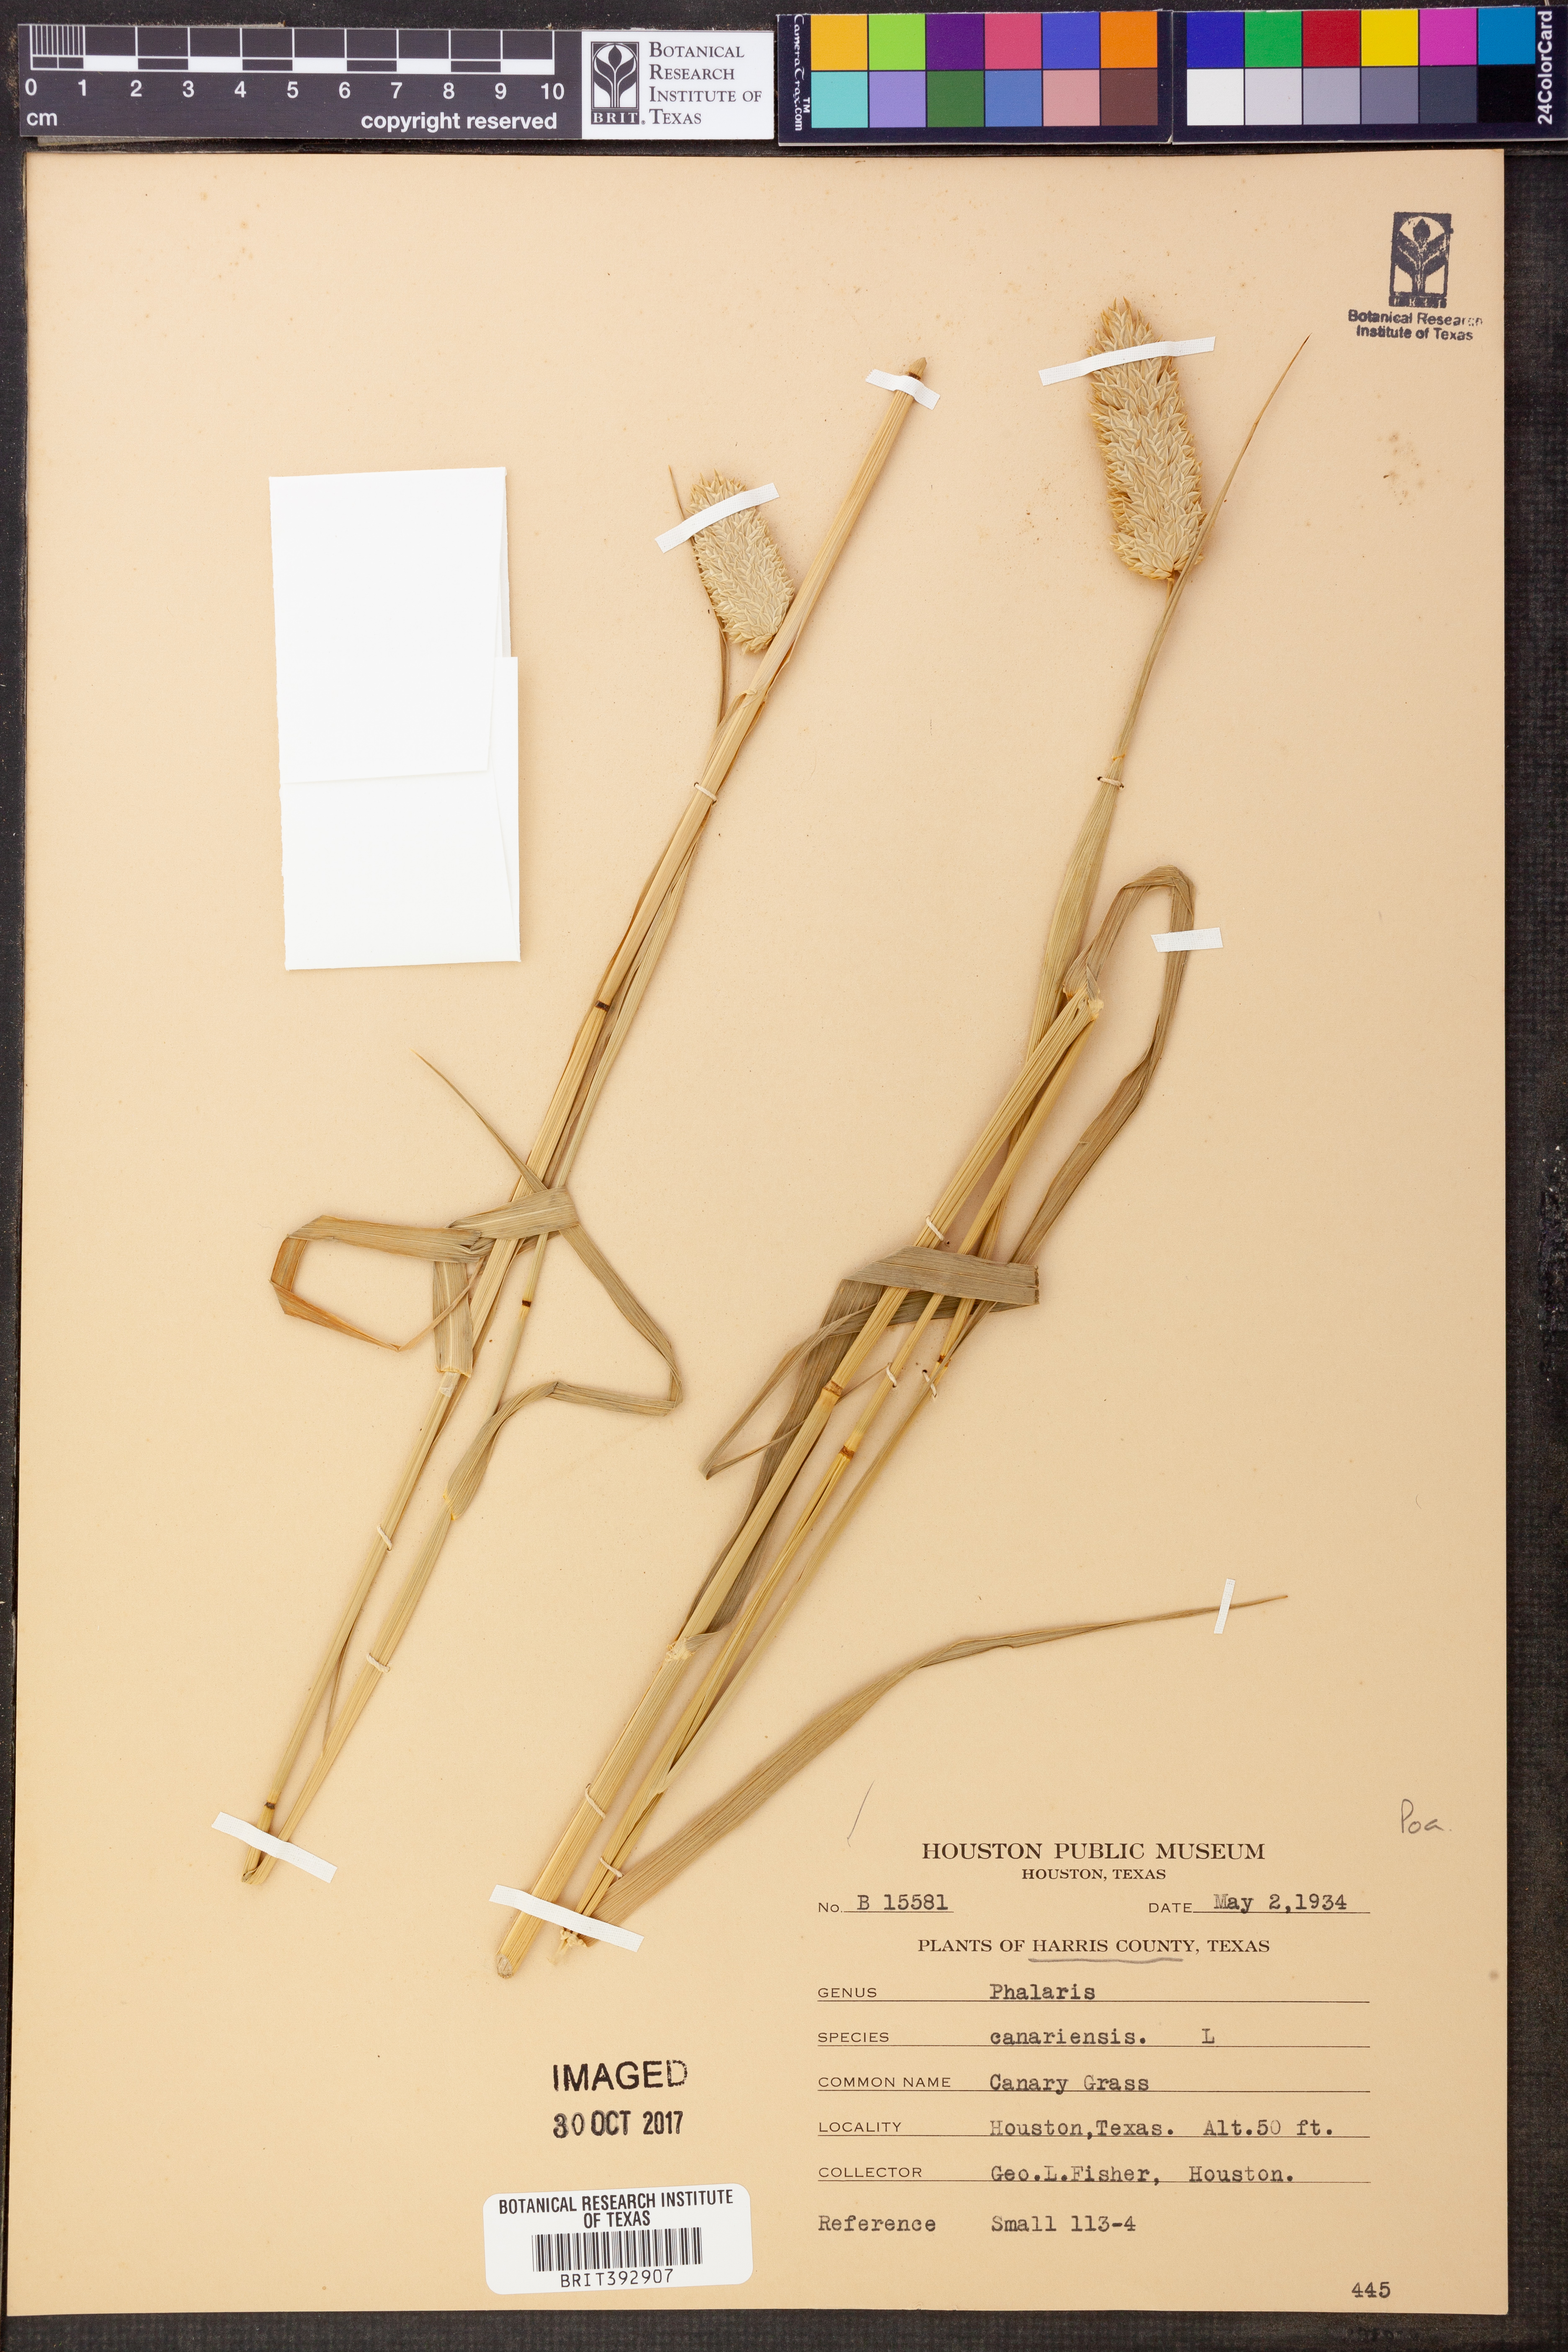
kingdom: Plantae
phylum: Tracheophyta
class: Liliopsida
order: Poales
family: Poaceae
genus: Phalaris
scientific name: Phalaris canariensis
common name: Annual canarygrass
